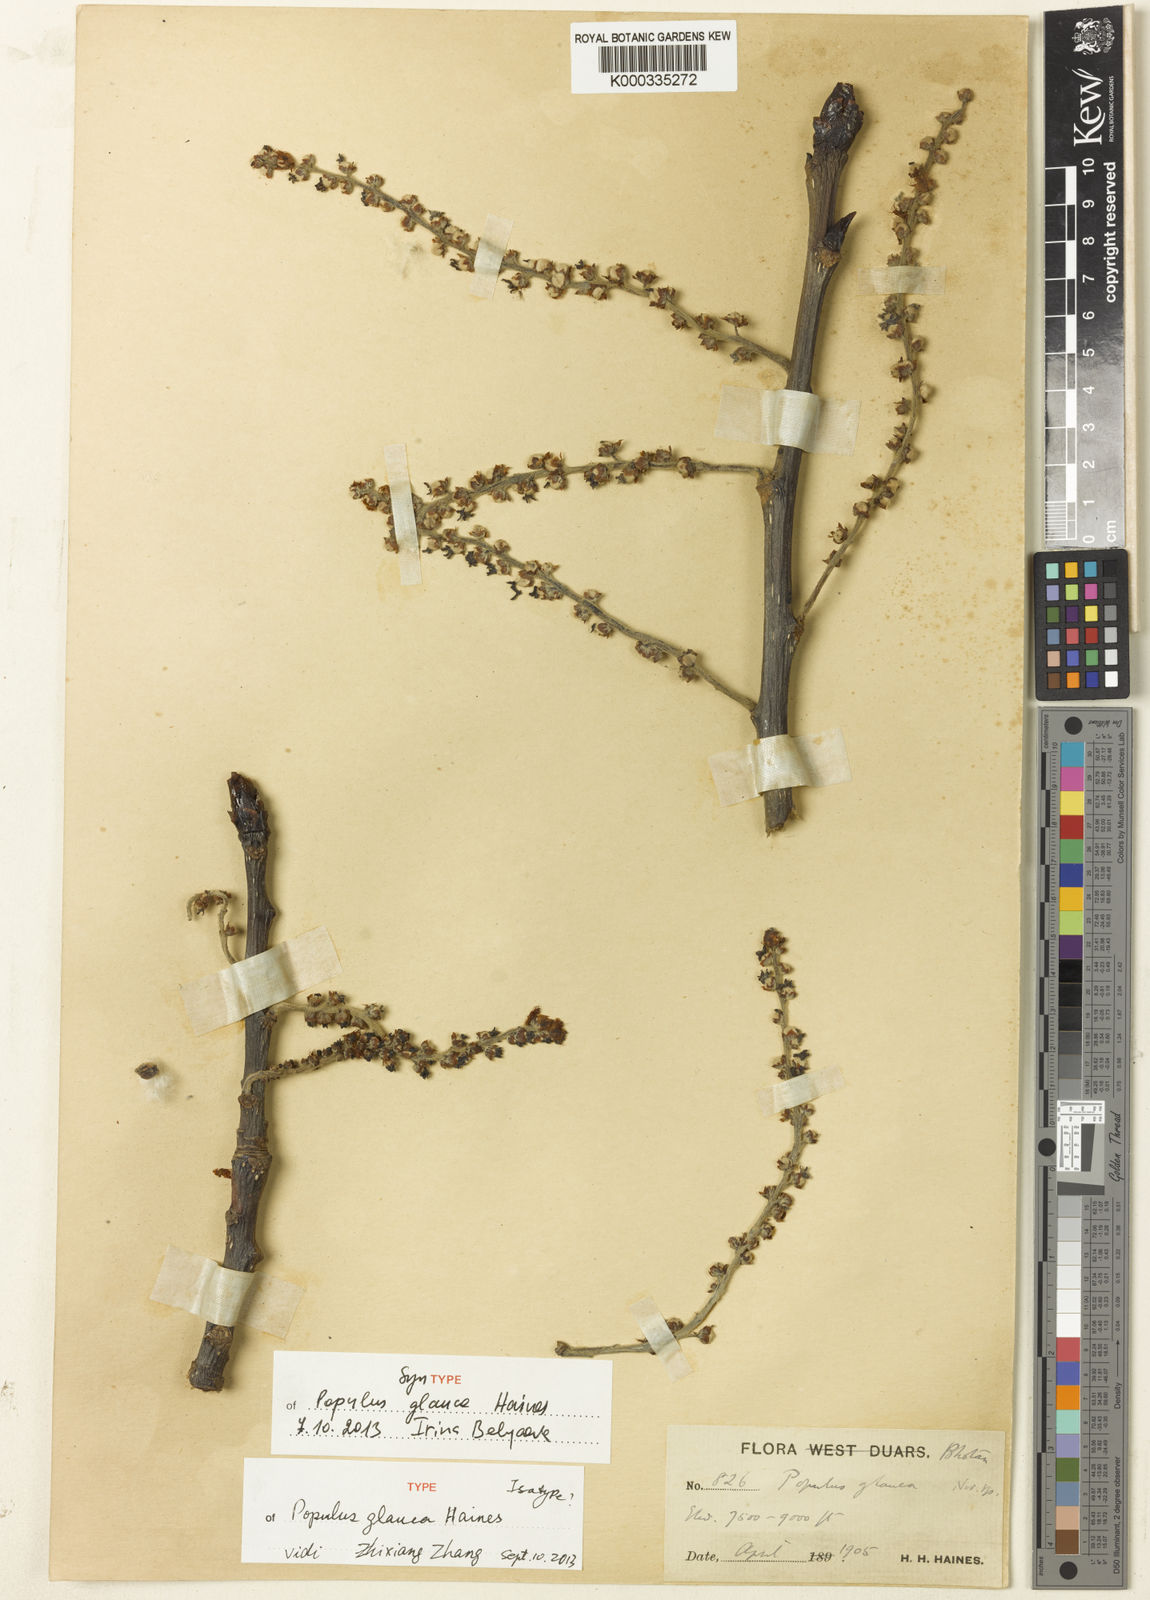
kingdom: Plantae
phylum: Tracheophyta
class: Magnoliopsida
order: Malpighiales
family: Salicaceae
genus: Populus
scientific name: Populus glauca
